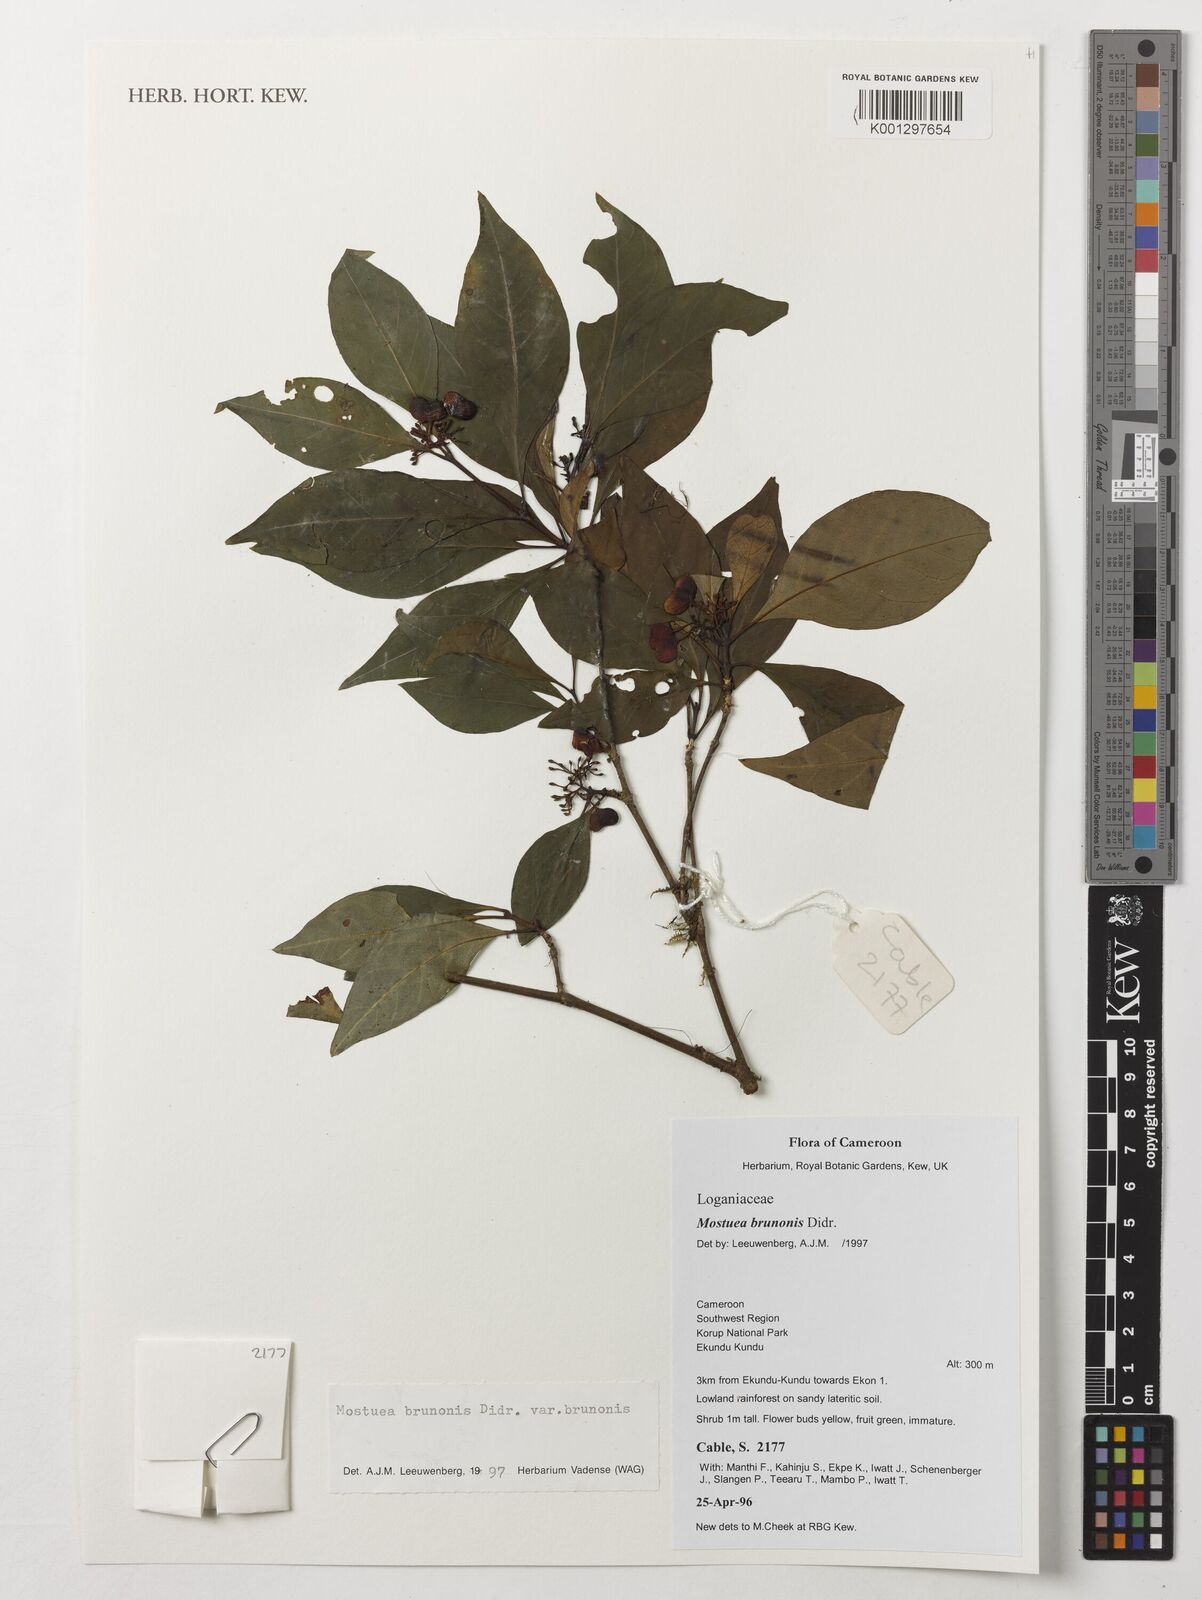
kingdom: Plantae
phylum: Tracheophyta
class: Magnoliopsida
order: Gentianales
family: Gelsemiaceae
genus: Mostuea
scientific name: Mostuea brunonis
